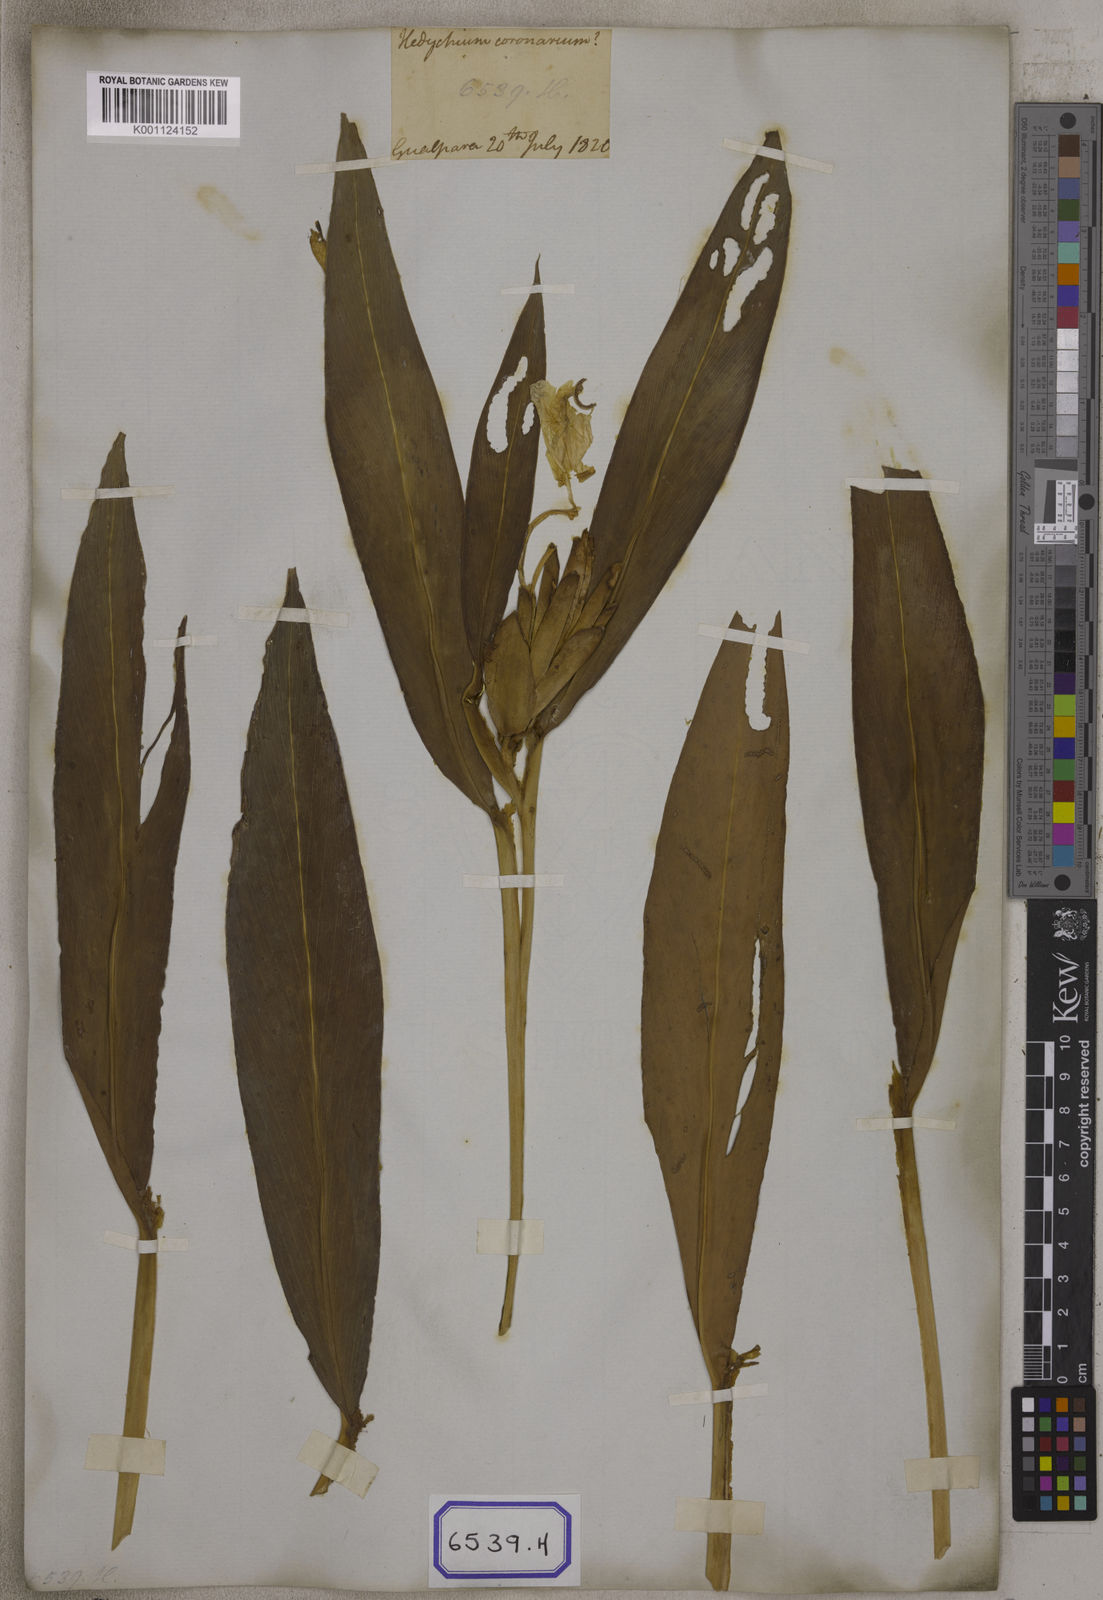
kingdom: Plantae
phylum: Tracheophyta
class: Liliopsida
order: Zingiberales
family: Zingiberaceae
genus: Hedychium
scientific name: Hedychium coronarium
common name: White garland-lily
